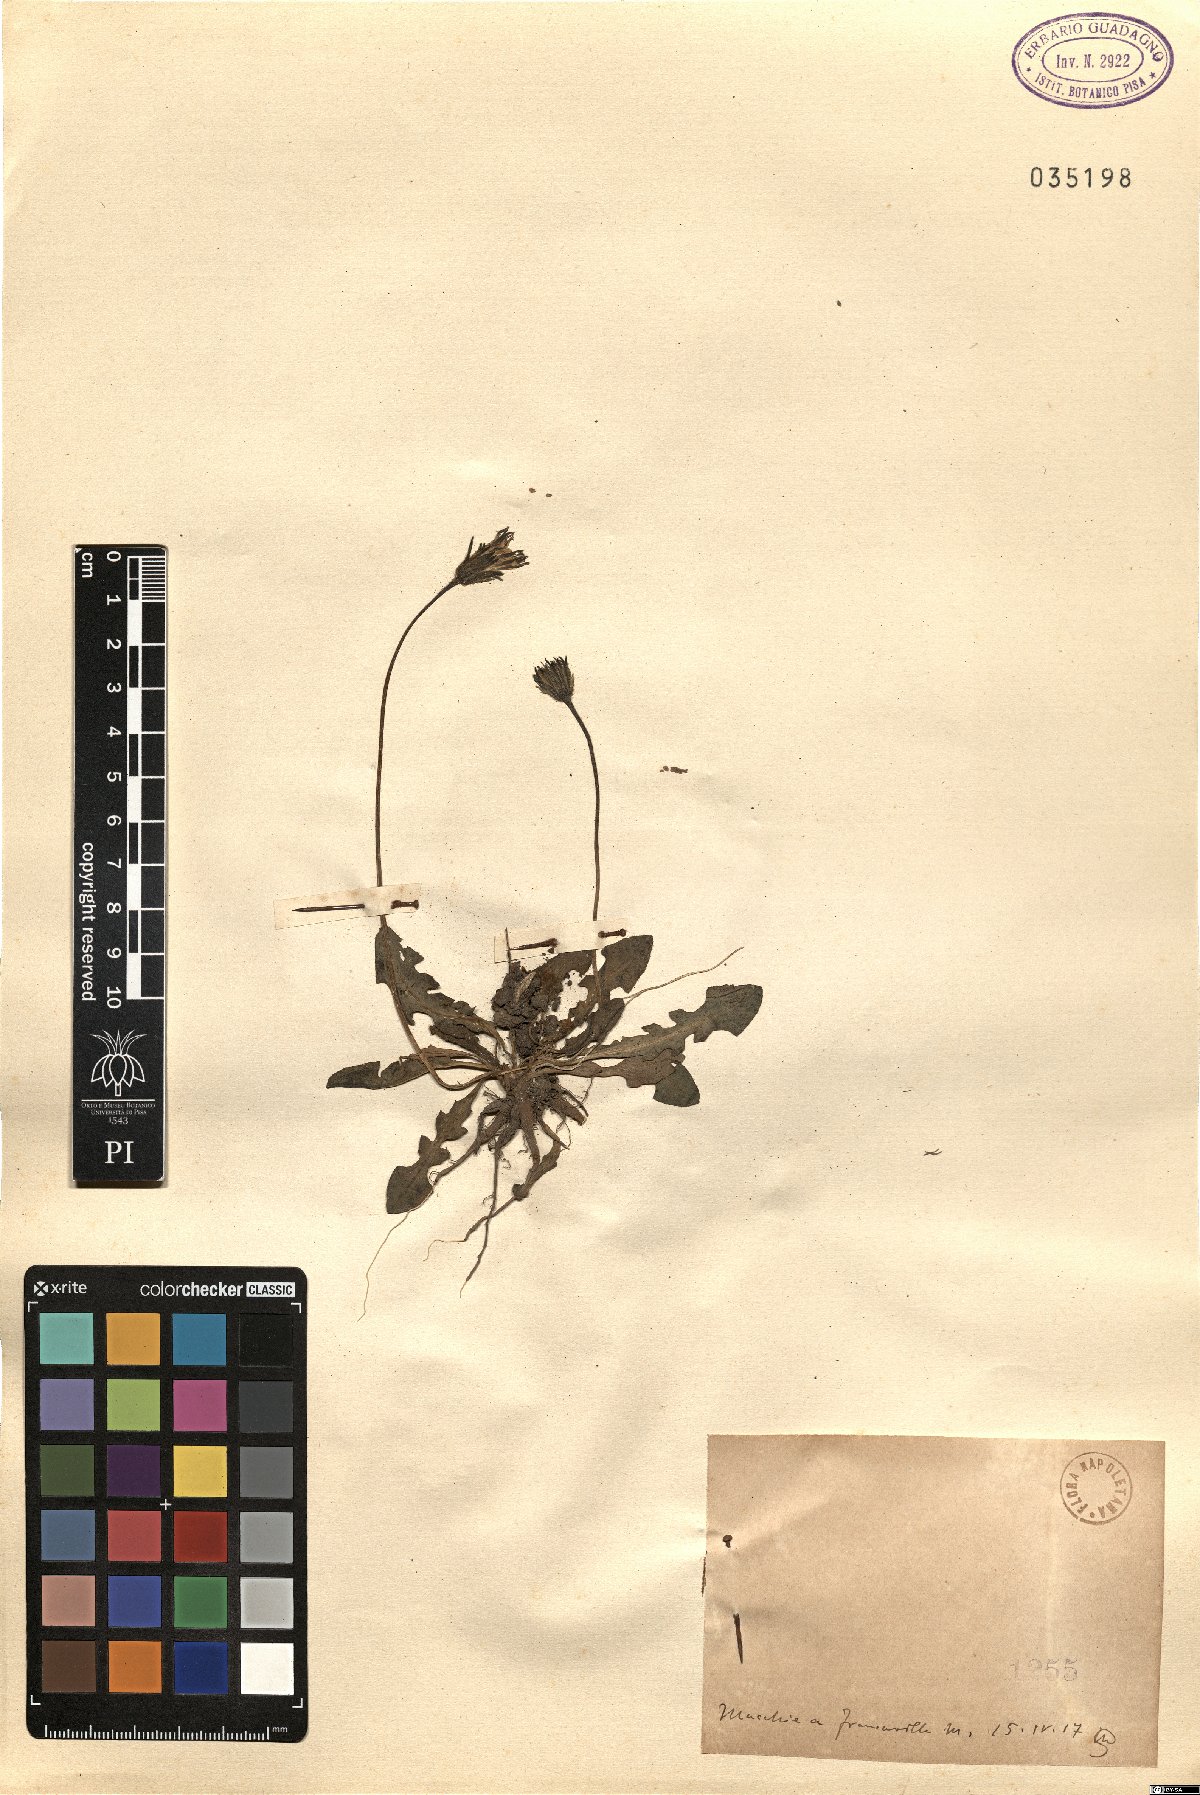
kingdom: Plantae
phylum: Tracheophyta
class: Magnoliopsida
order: Asterales
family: Asteraceae
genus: Thrincia
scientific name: Thrincia
